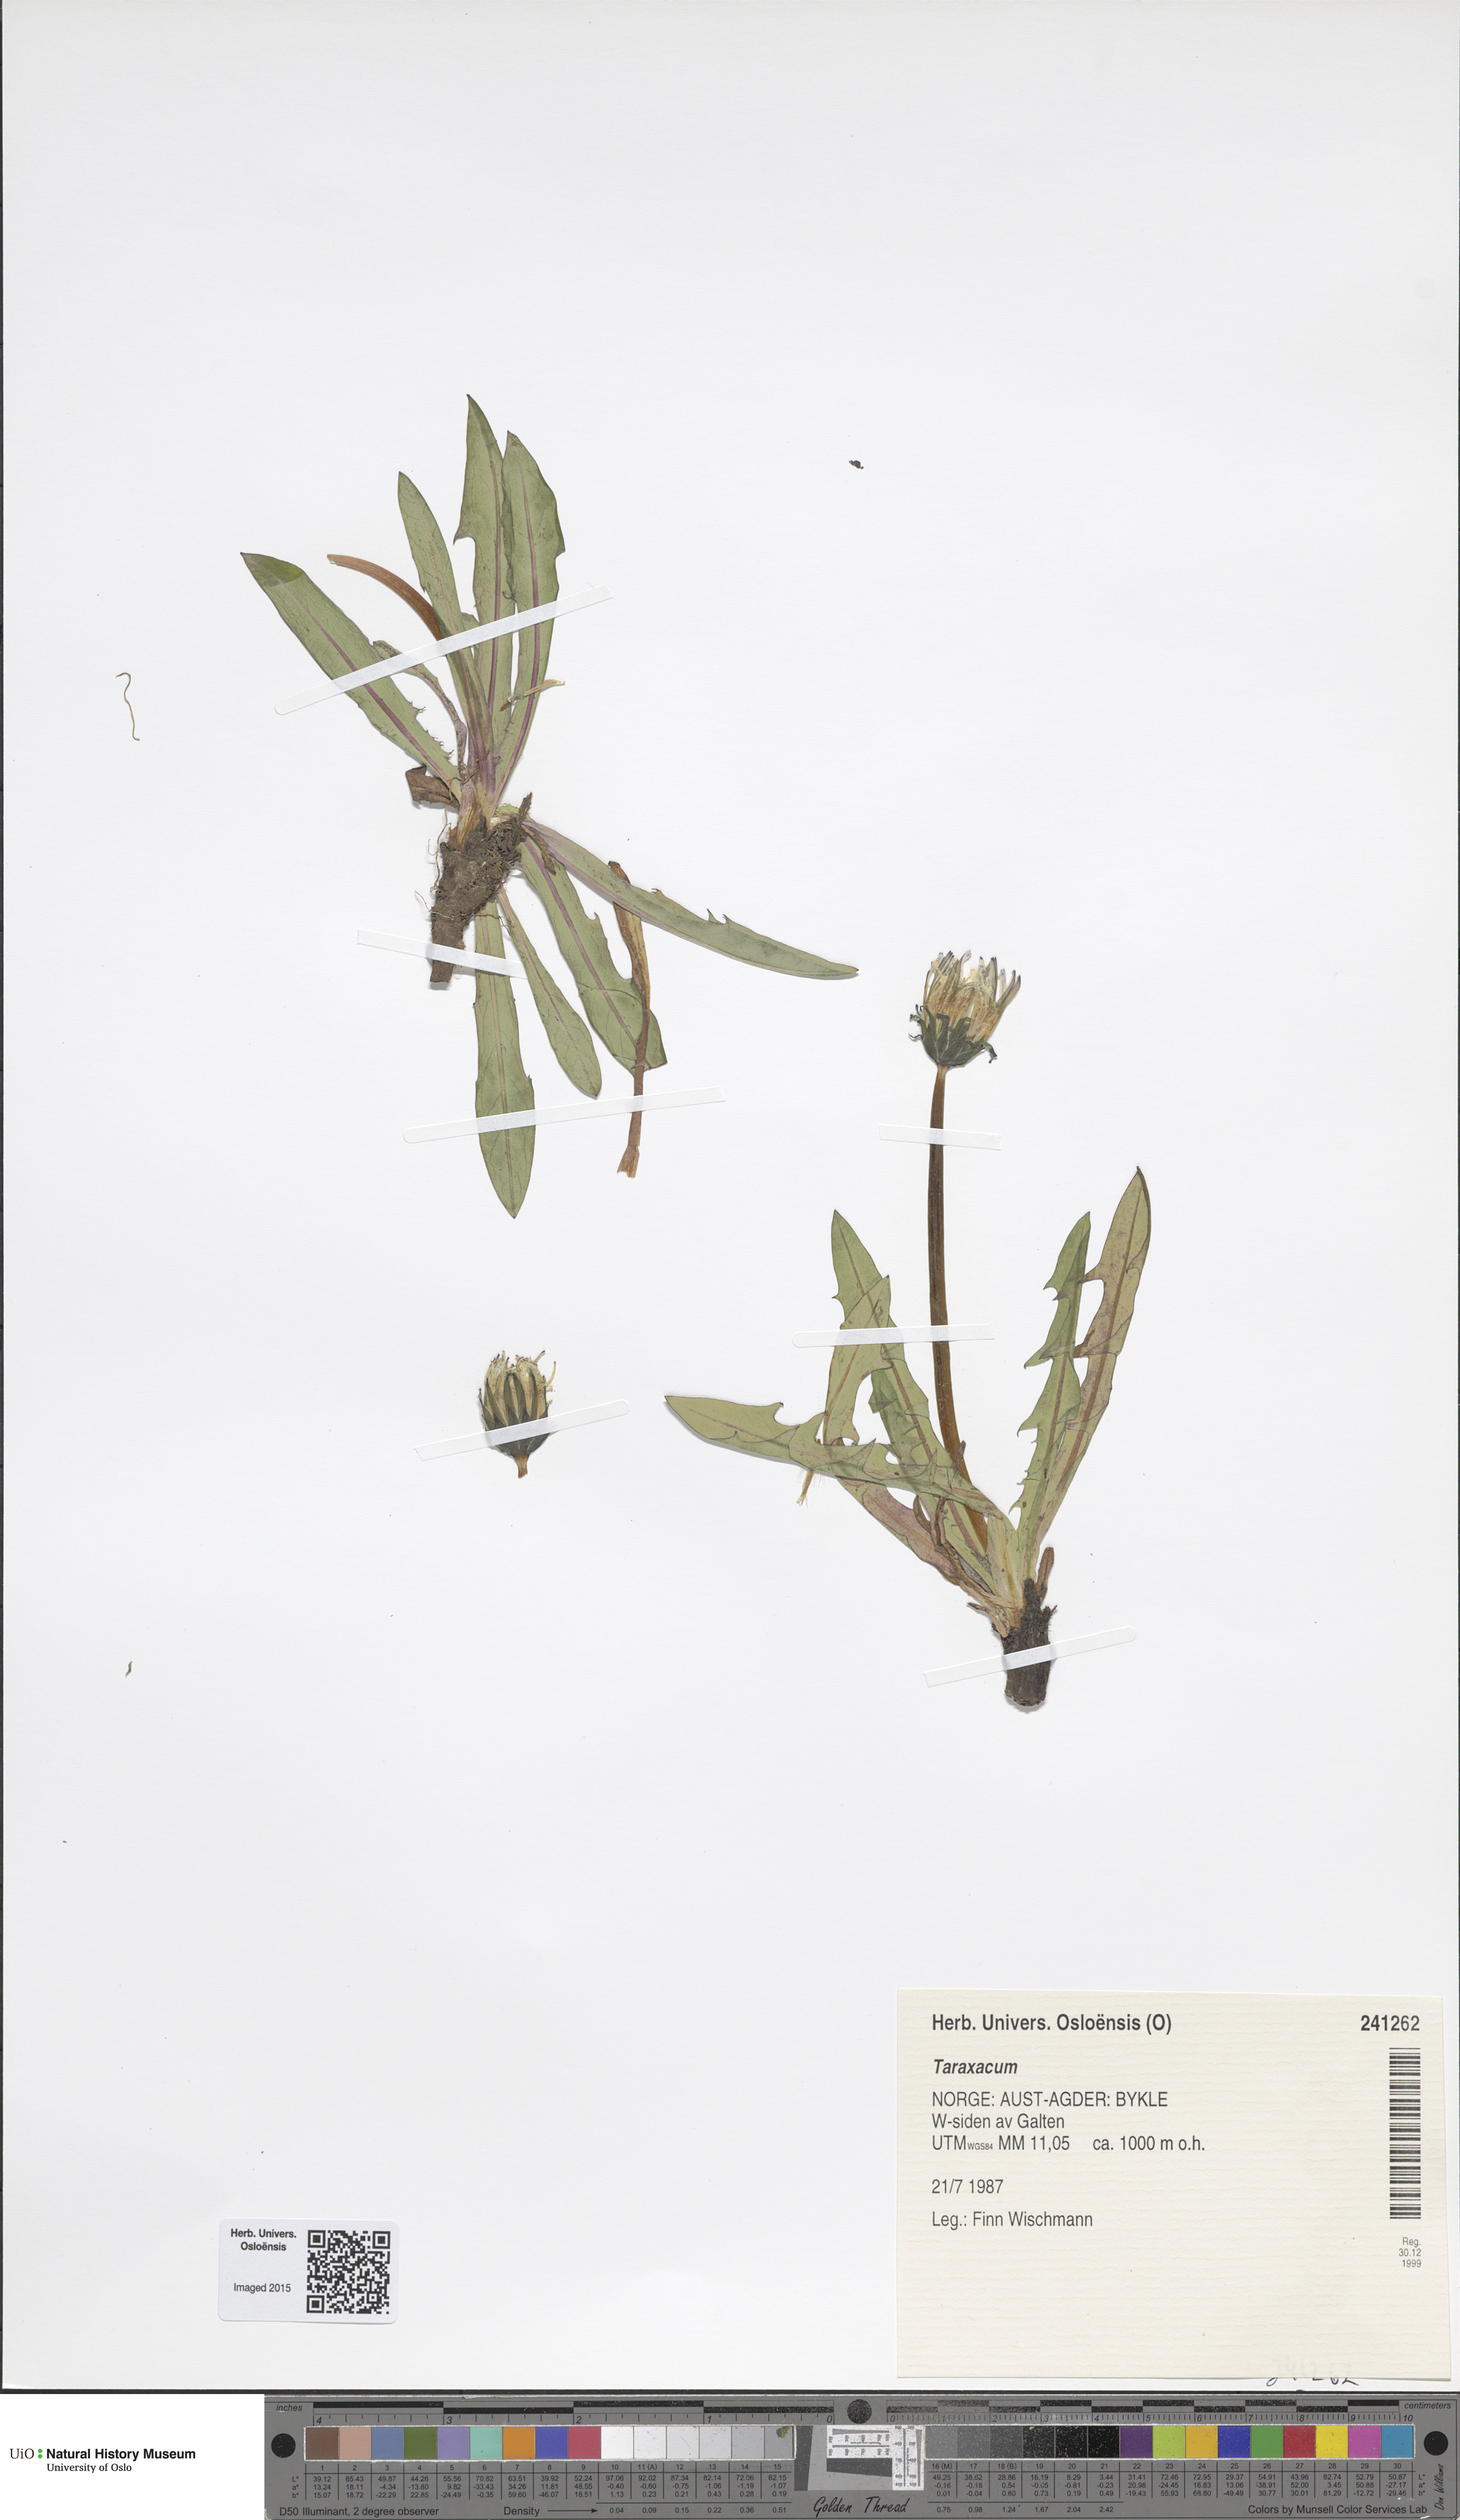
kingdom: Plantae
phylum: Tracheophyta
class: Magnoliopsida
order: Asterales
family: Asteraceae
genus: Taraxacum
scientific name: Taraxacum
